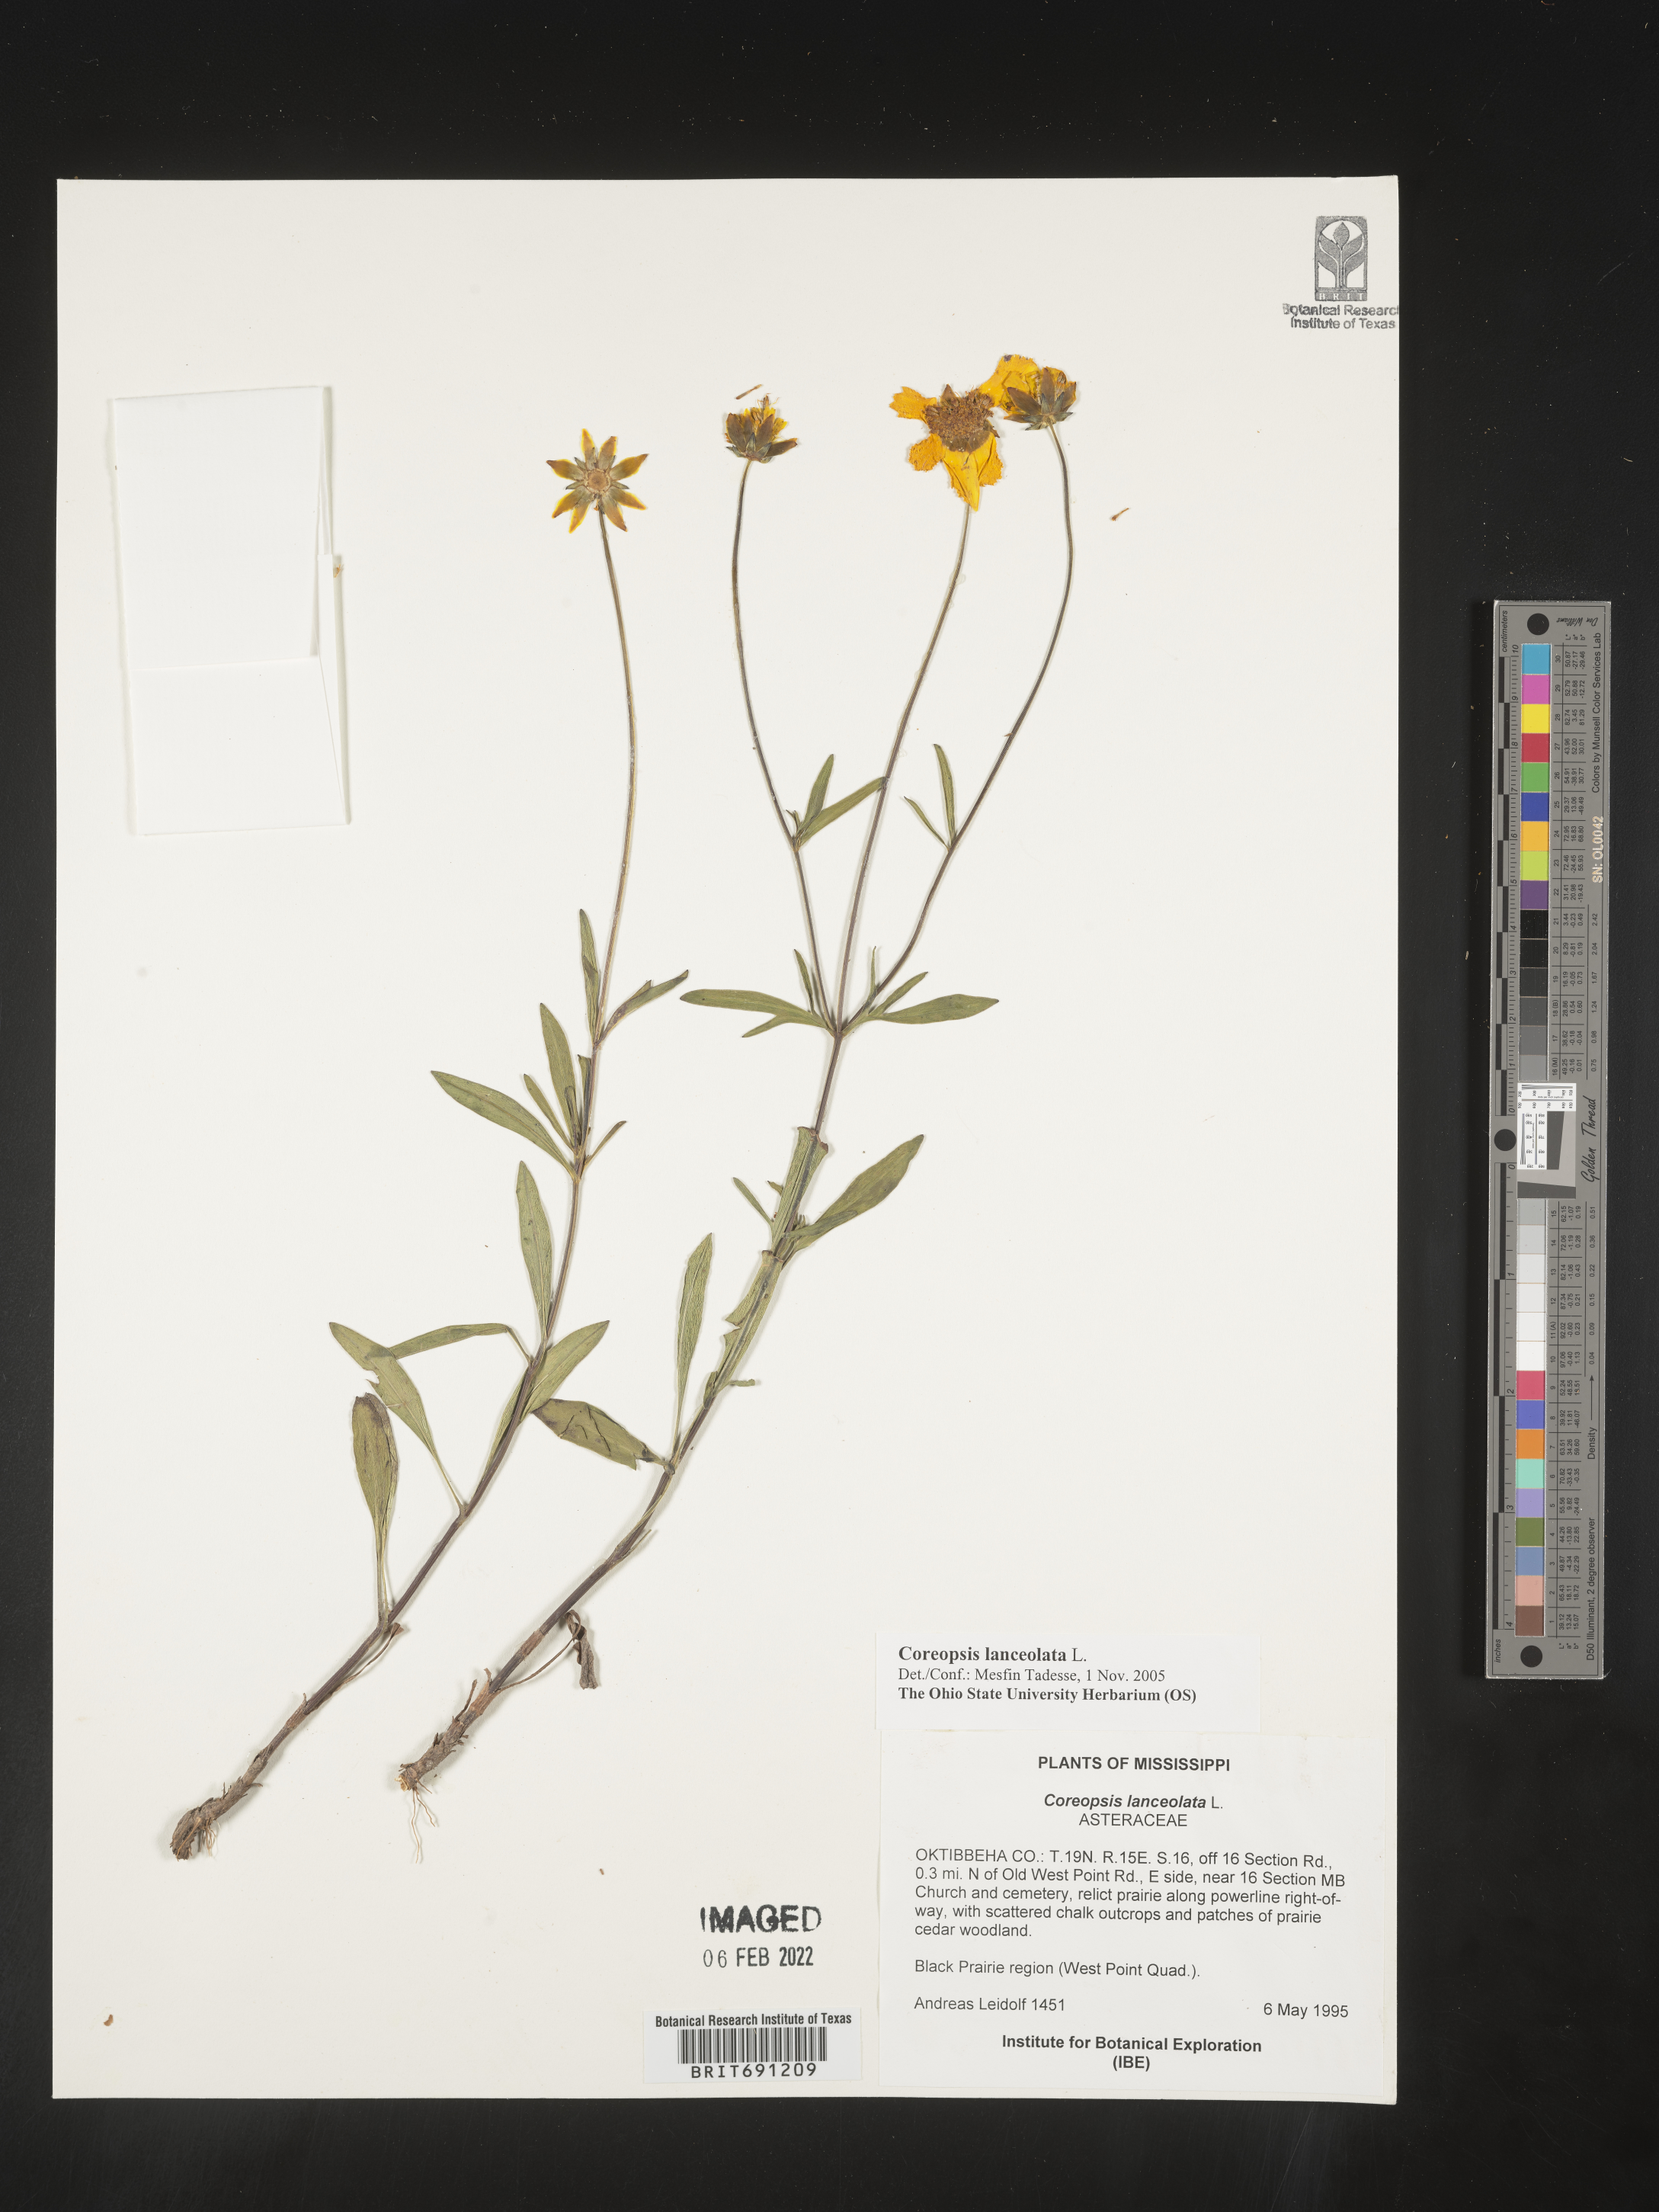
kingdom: Plantae
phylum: Tracheophyta
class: Magnoliopsida
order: Asterales
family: Asteraceae
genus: Coreopsis
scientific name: Coreopsis lanceolata
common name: Garden coreopsis
